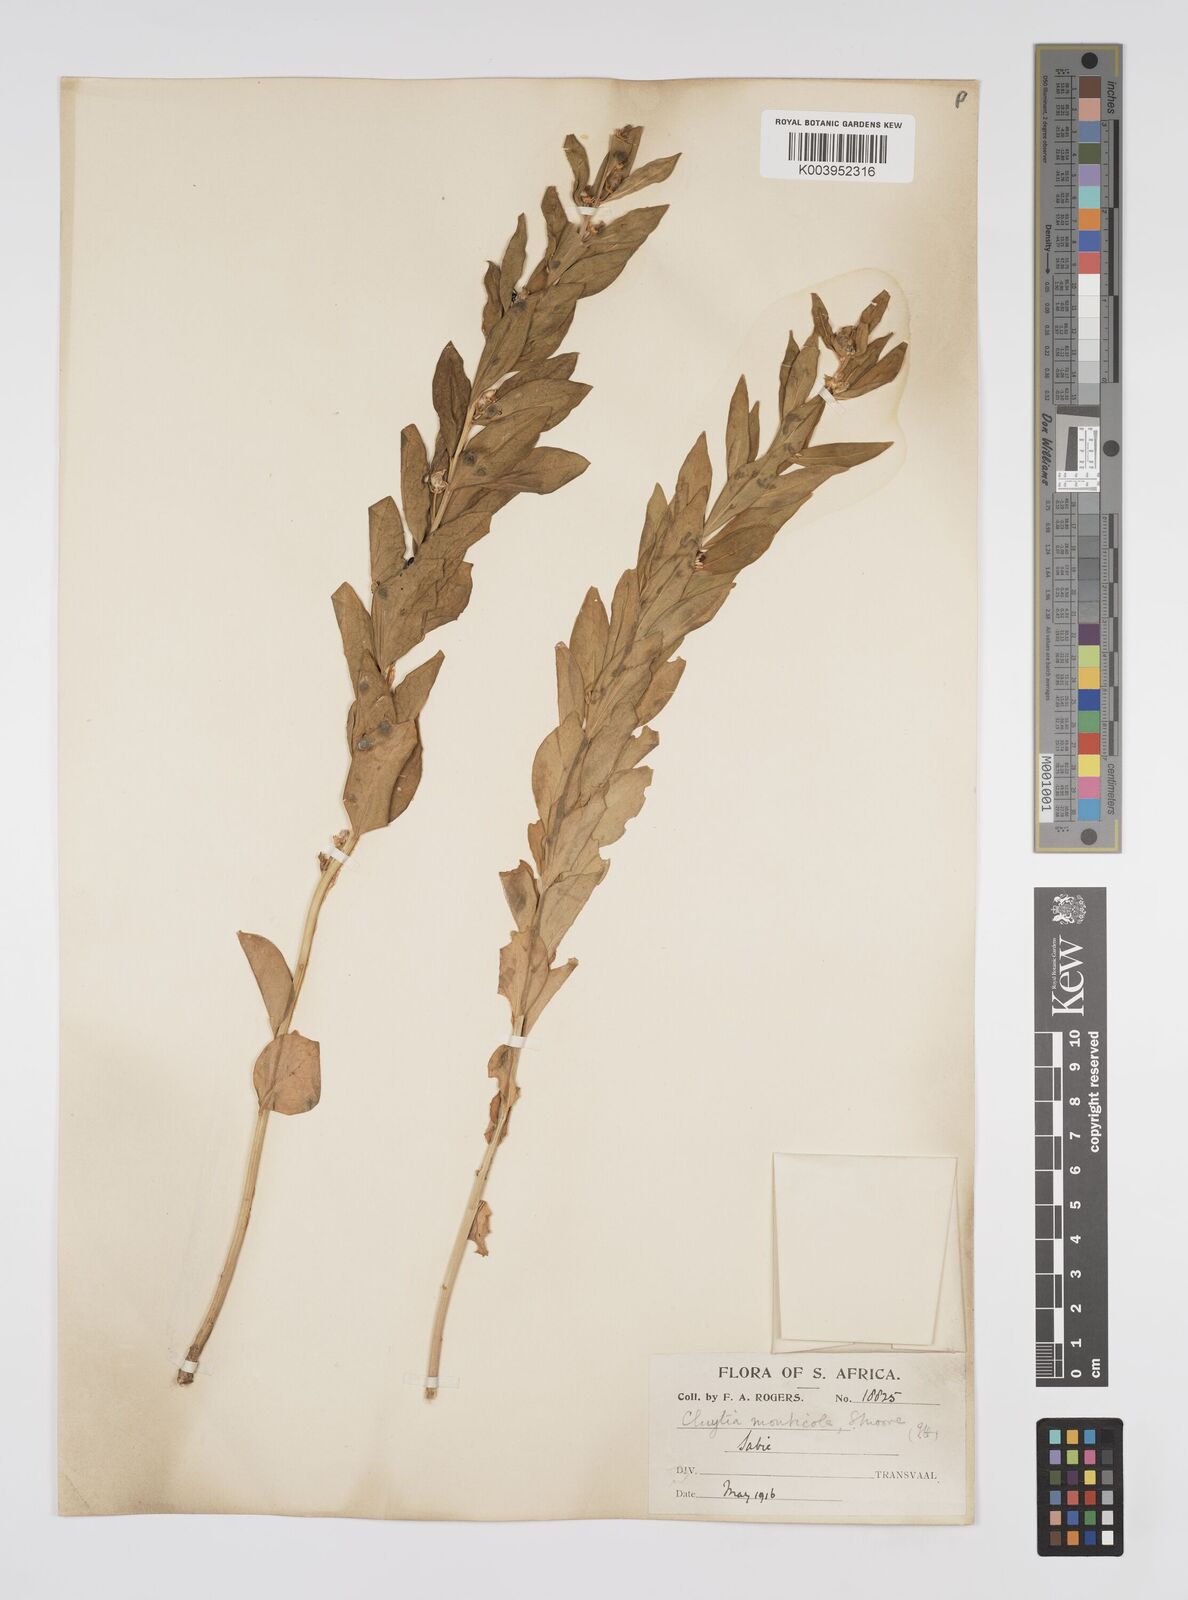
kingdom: Plantae
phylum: Tracheophyta
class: Magnoliopsida
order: Malpighiales
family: Peraceae
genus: Clutia
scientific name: Clutia
